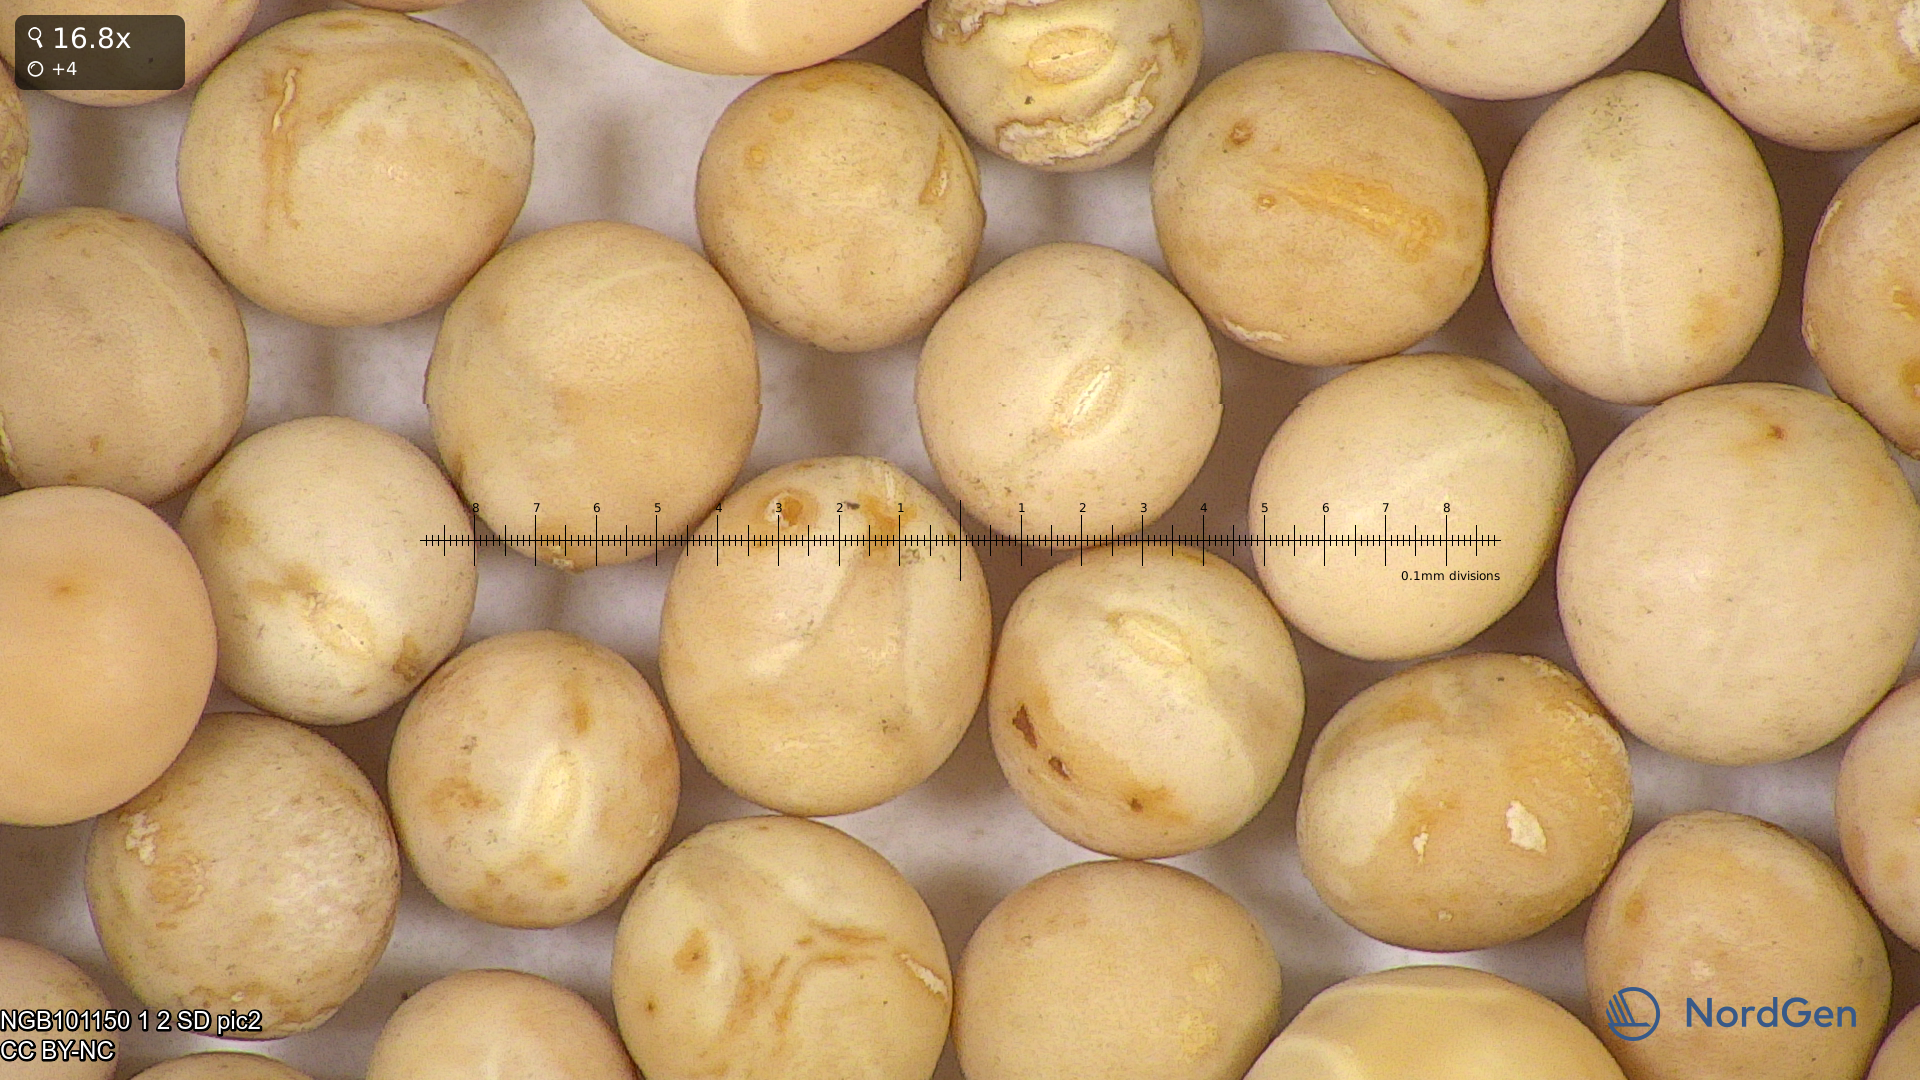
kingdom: Plantae
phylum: Tracheophyta
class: Magnoliopsida
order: Fabales
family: Fabaceae
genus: Lathyrus
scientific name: Lathyrus oleraceus
